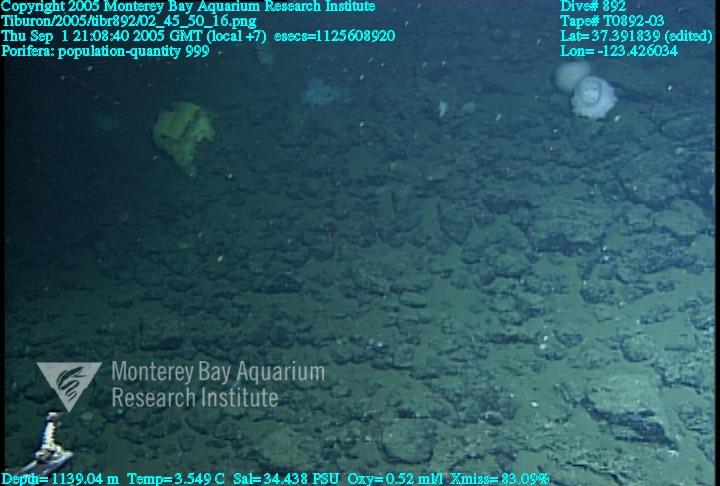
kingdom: Animalia
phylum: Porifera
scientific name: Porifera
